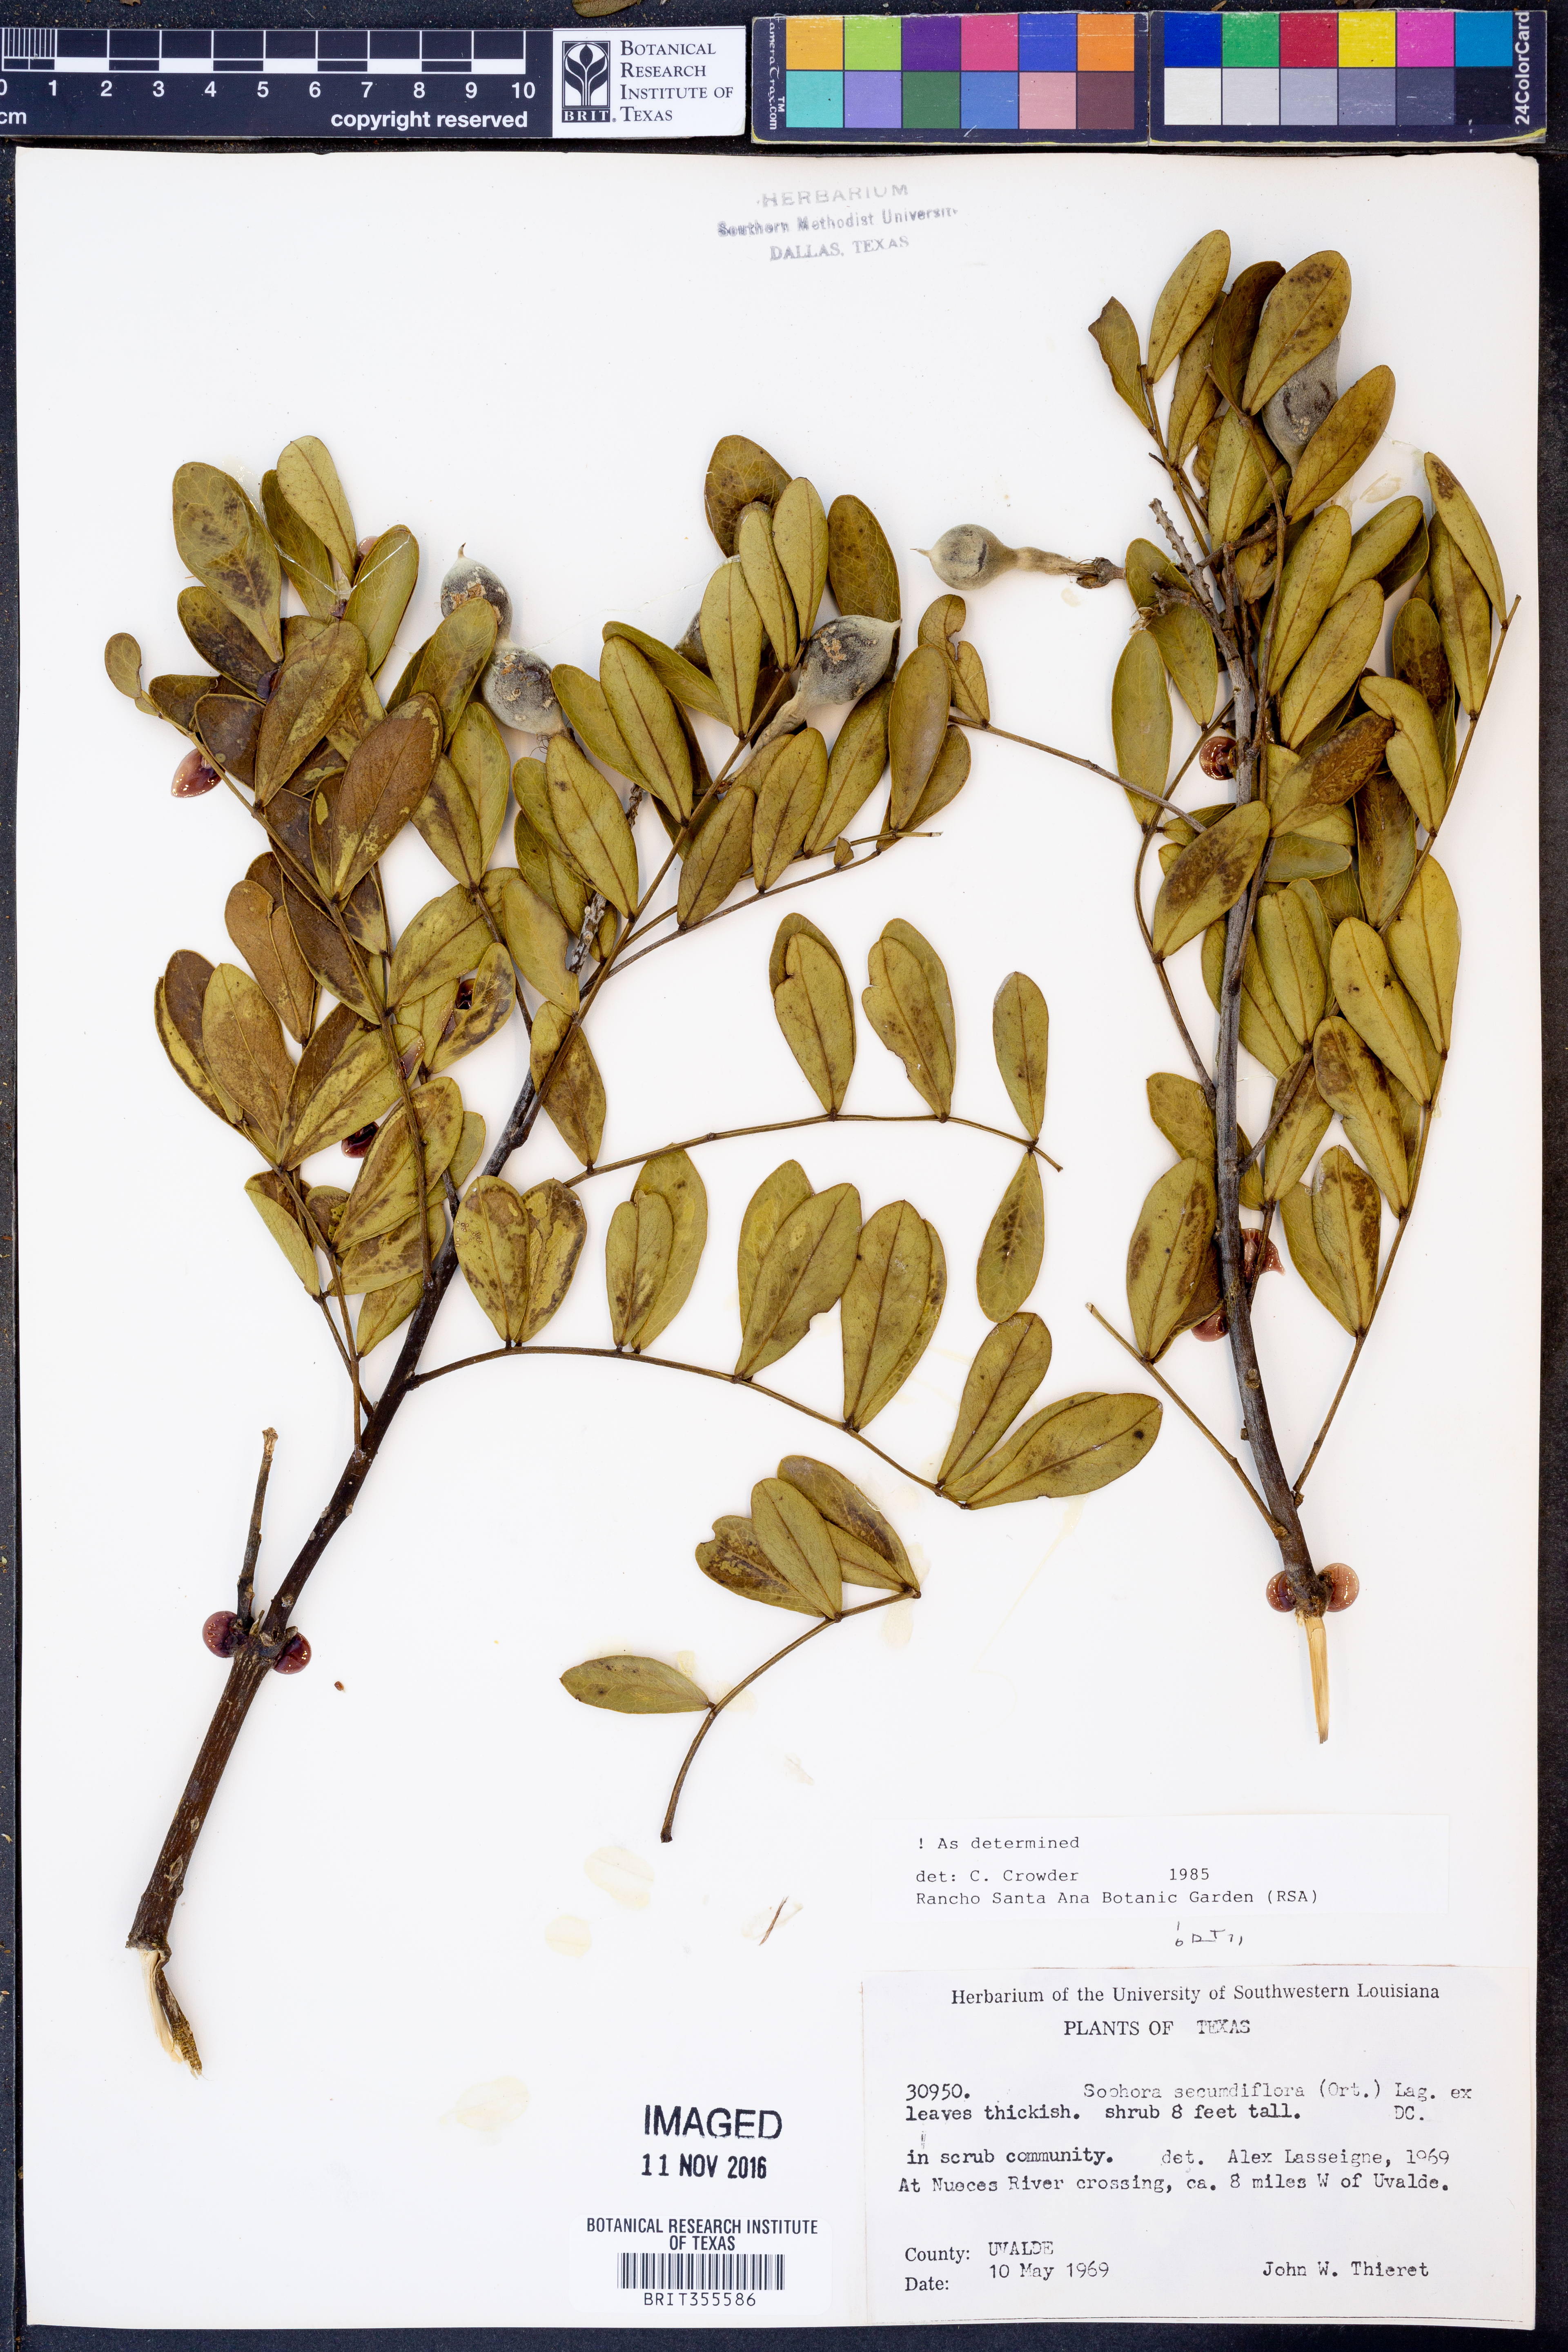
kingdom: Plantae
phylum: Tracheophyta
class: Magnoliopsida
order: Fabales
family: Fabaceae
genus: Dermatophyllum
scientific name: Dermatophyllum secundiflorum
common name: Texas-mountain-laurel
